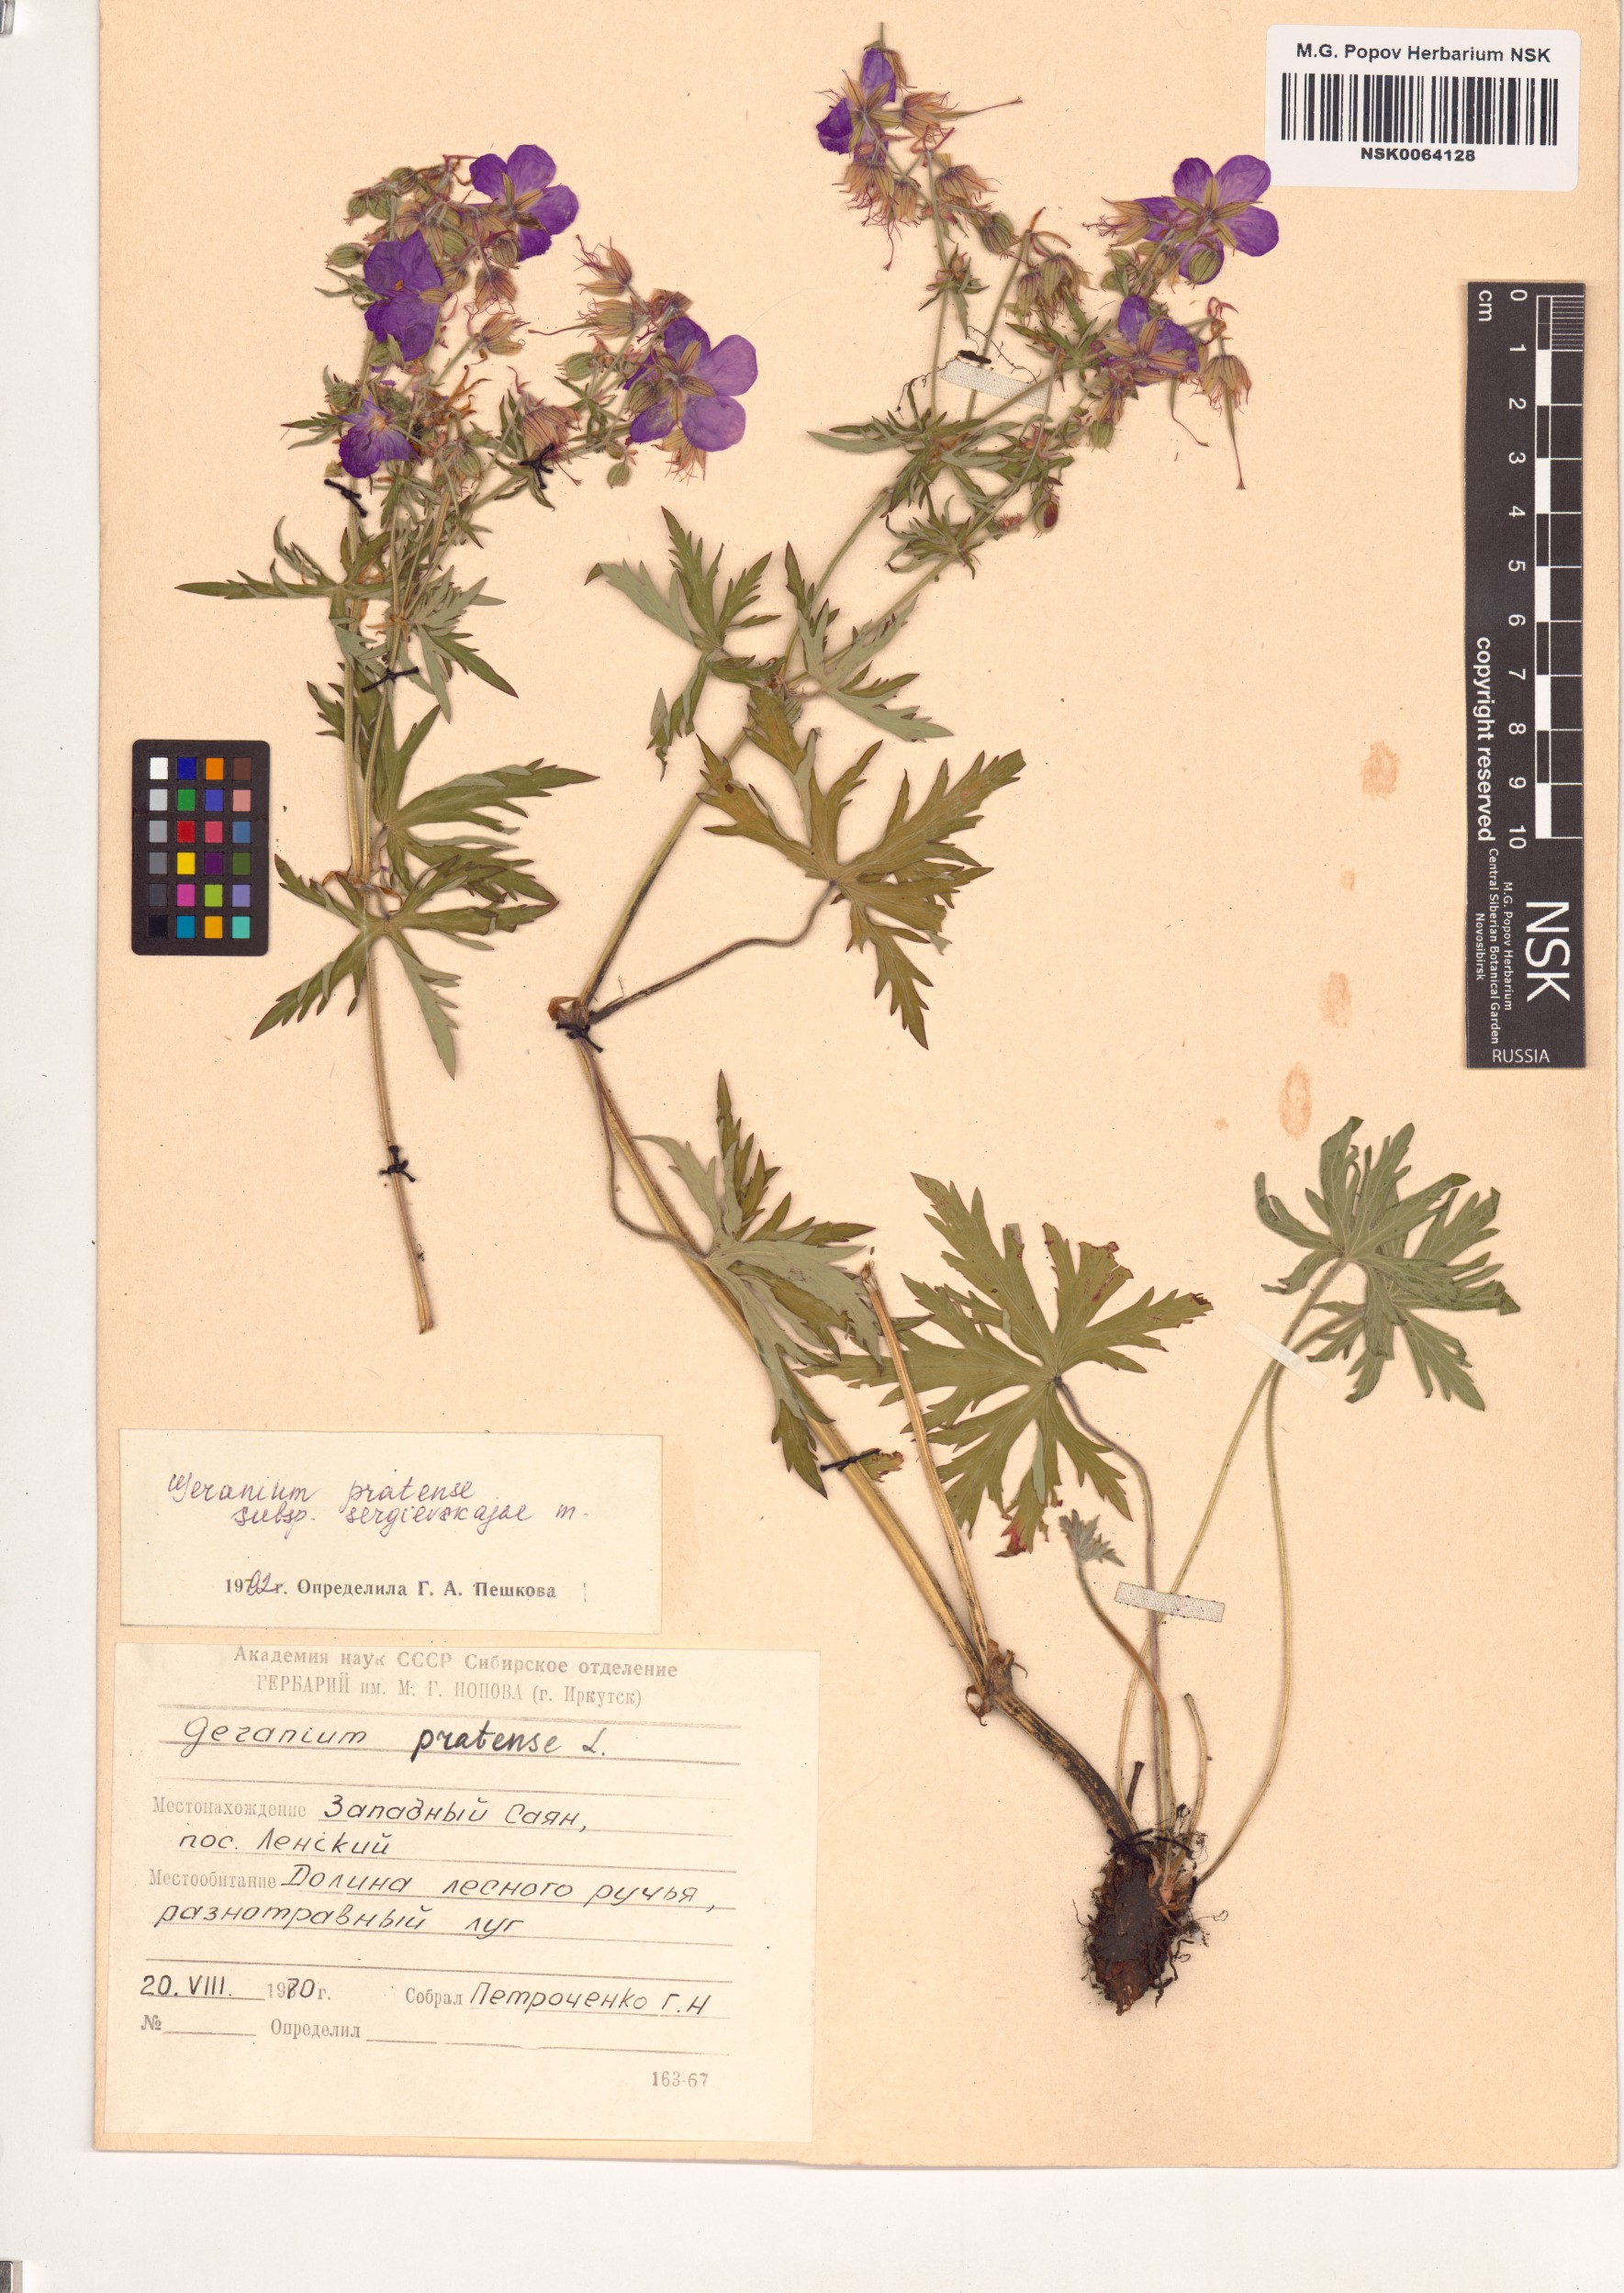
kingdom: Plantae
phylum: Tracheophyta
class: Magnoliopsida
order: Geraniales
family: Geraniaceae
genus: Geranium
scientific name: Geranium pratense
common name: Meadow crane's-bill
